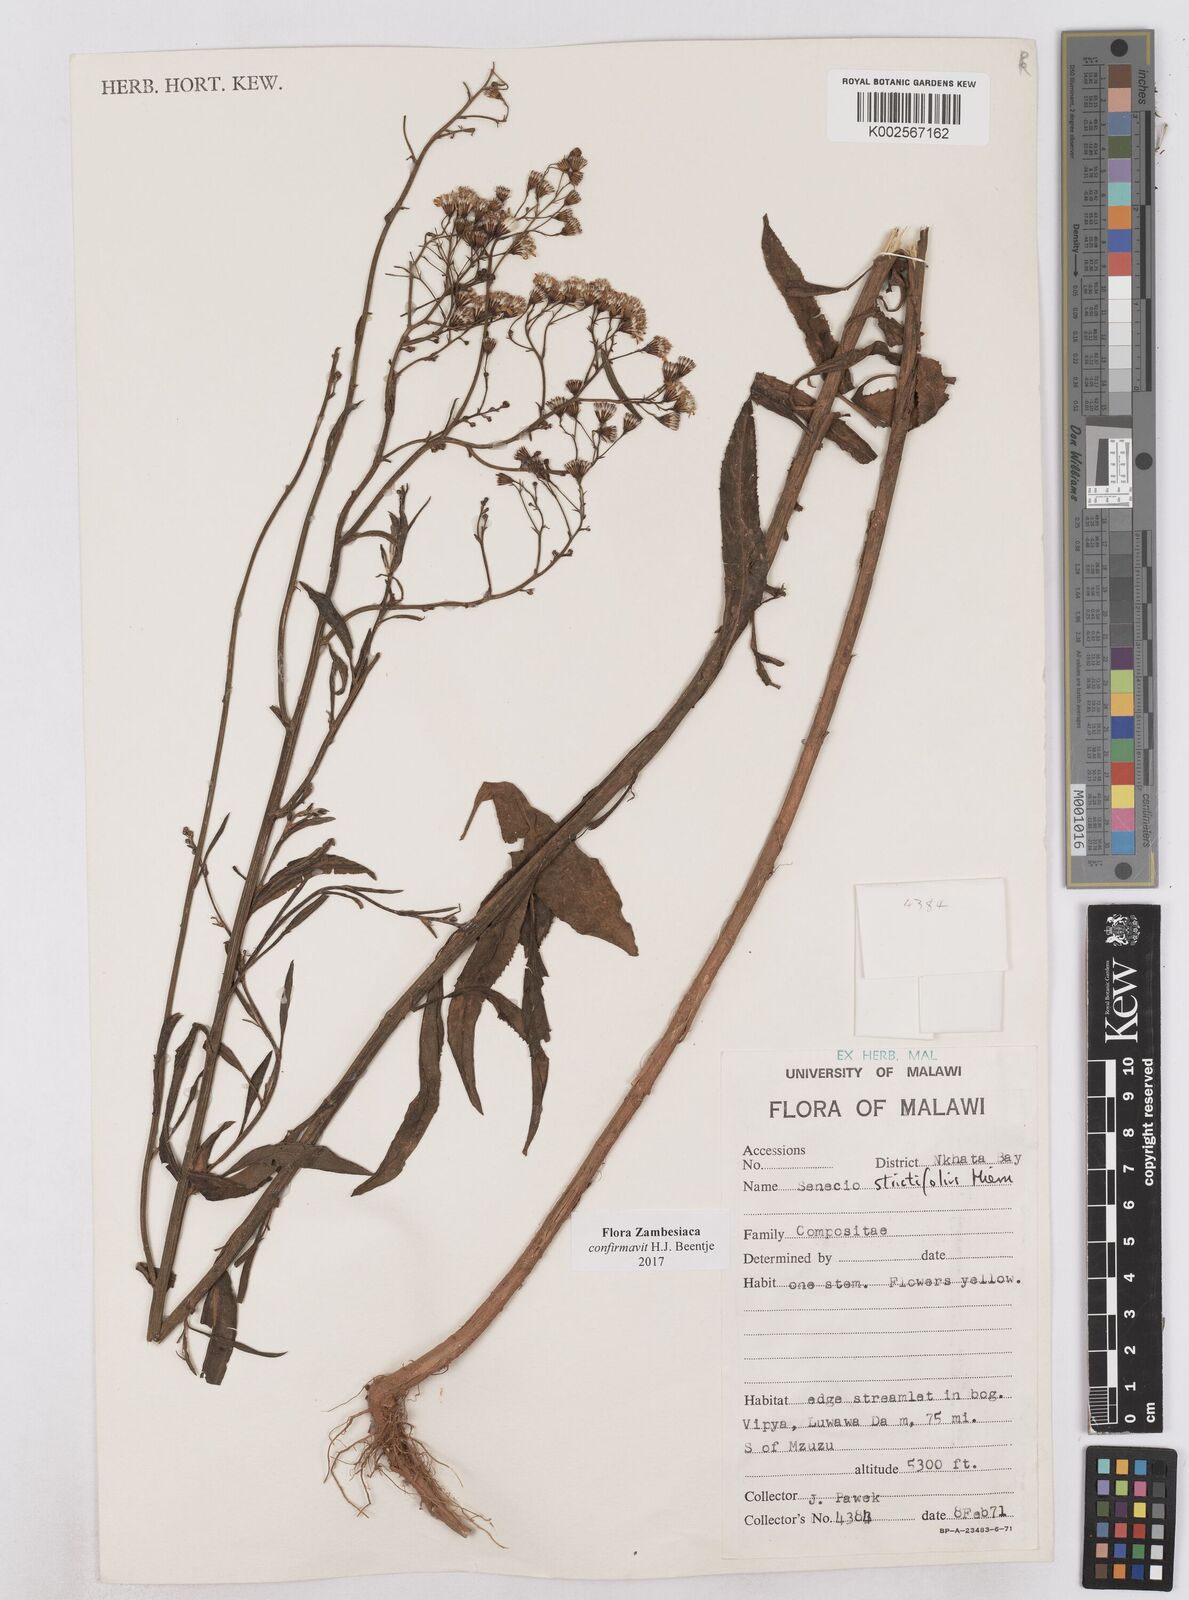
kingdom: Plantae
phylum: Tracheophyta
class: Magnoliopsida
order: Asterales
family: Asteraceae
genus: Senecio
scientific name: Senecio strictifolius
